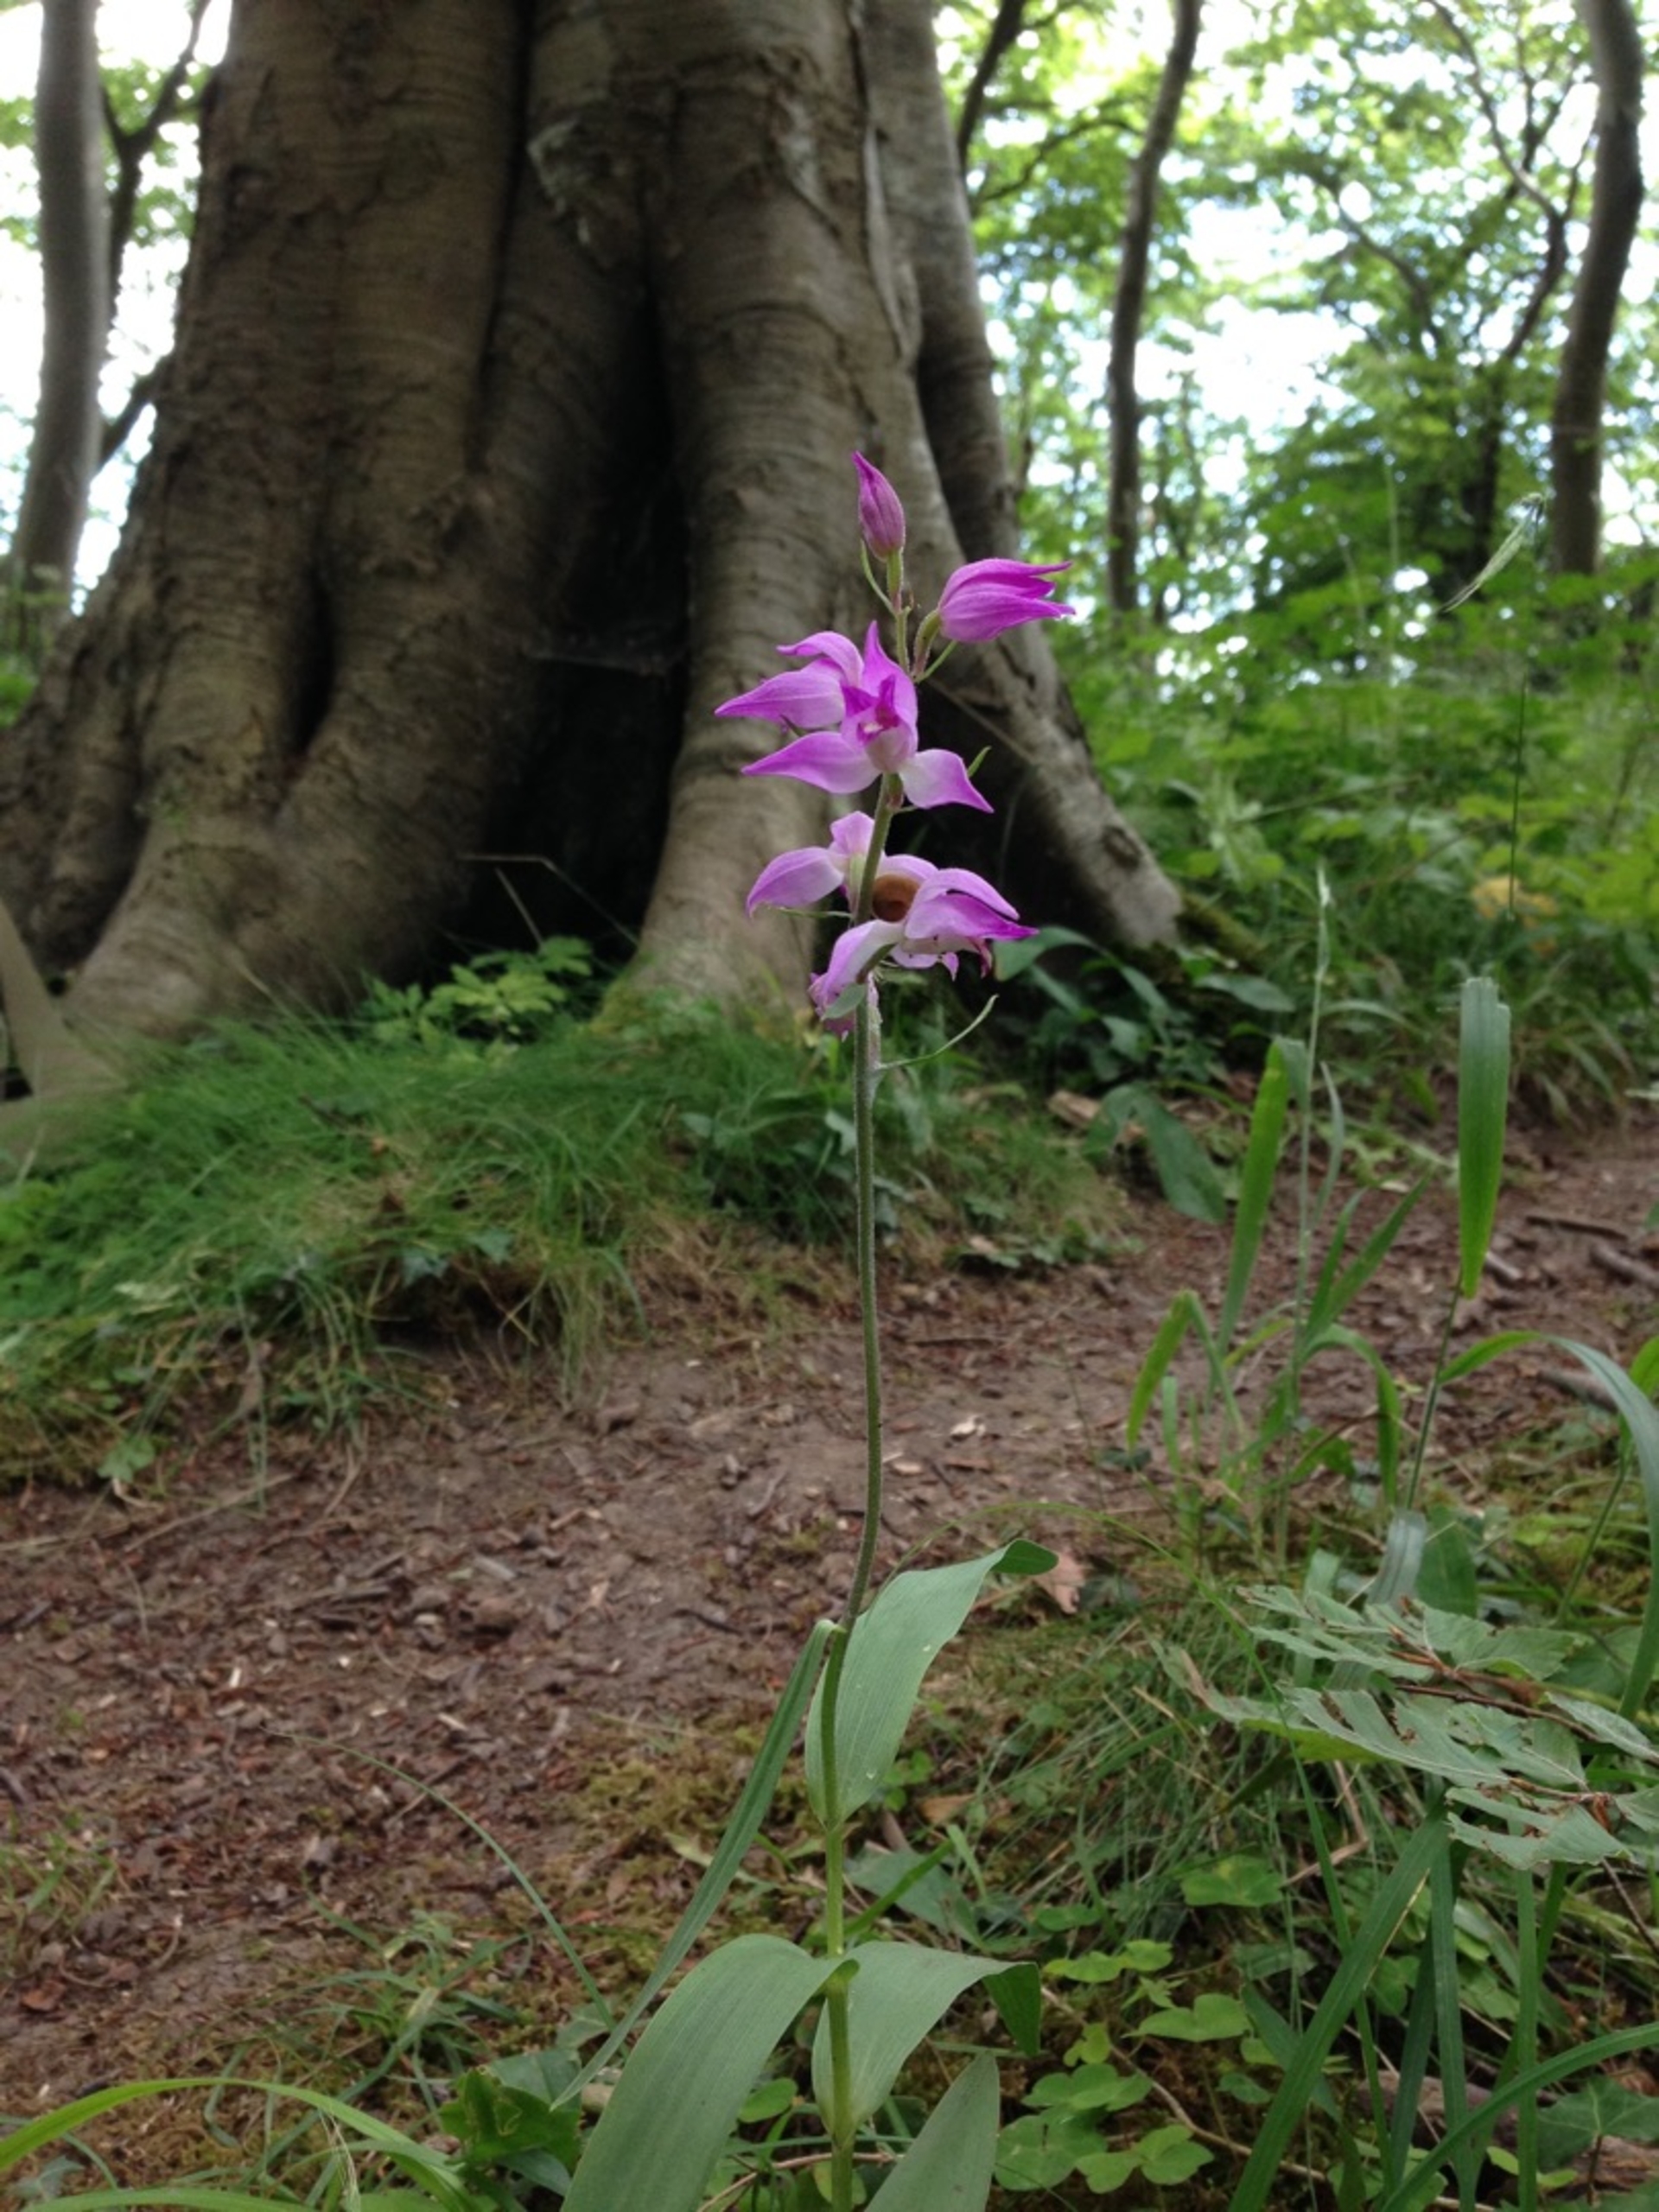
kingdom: Plantae
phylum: Tracheophyta
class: Liliopsida
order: Asparagales
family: Orchidaceae
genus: Cephalanthera
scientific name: Cephalanthera rubra
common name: Rød skovlilje
